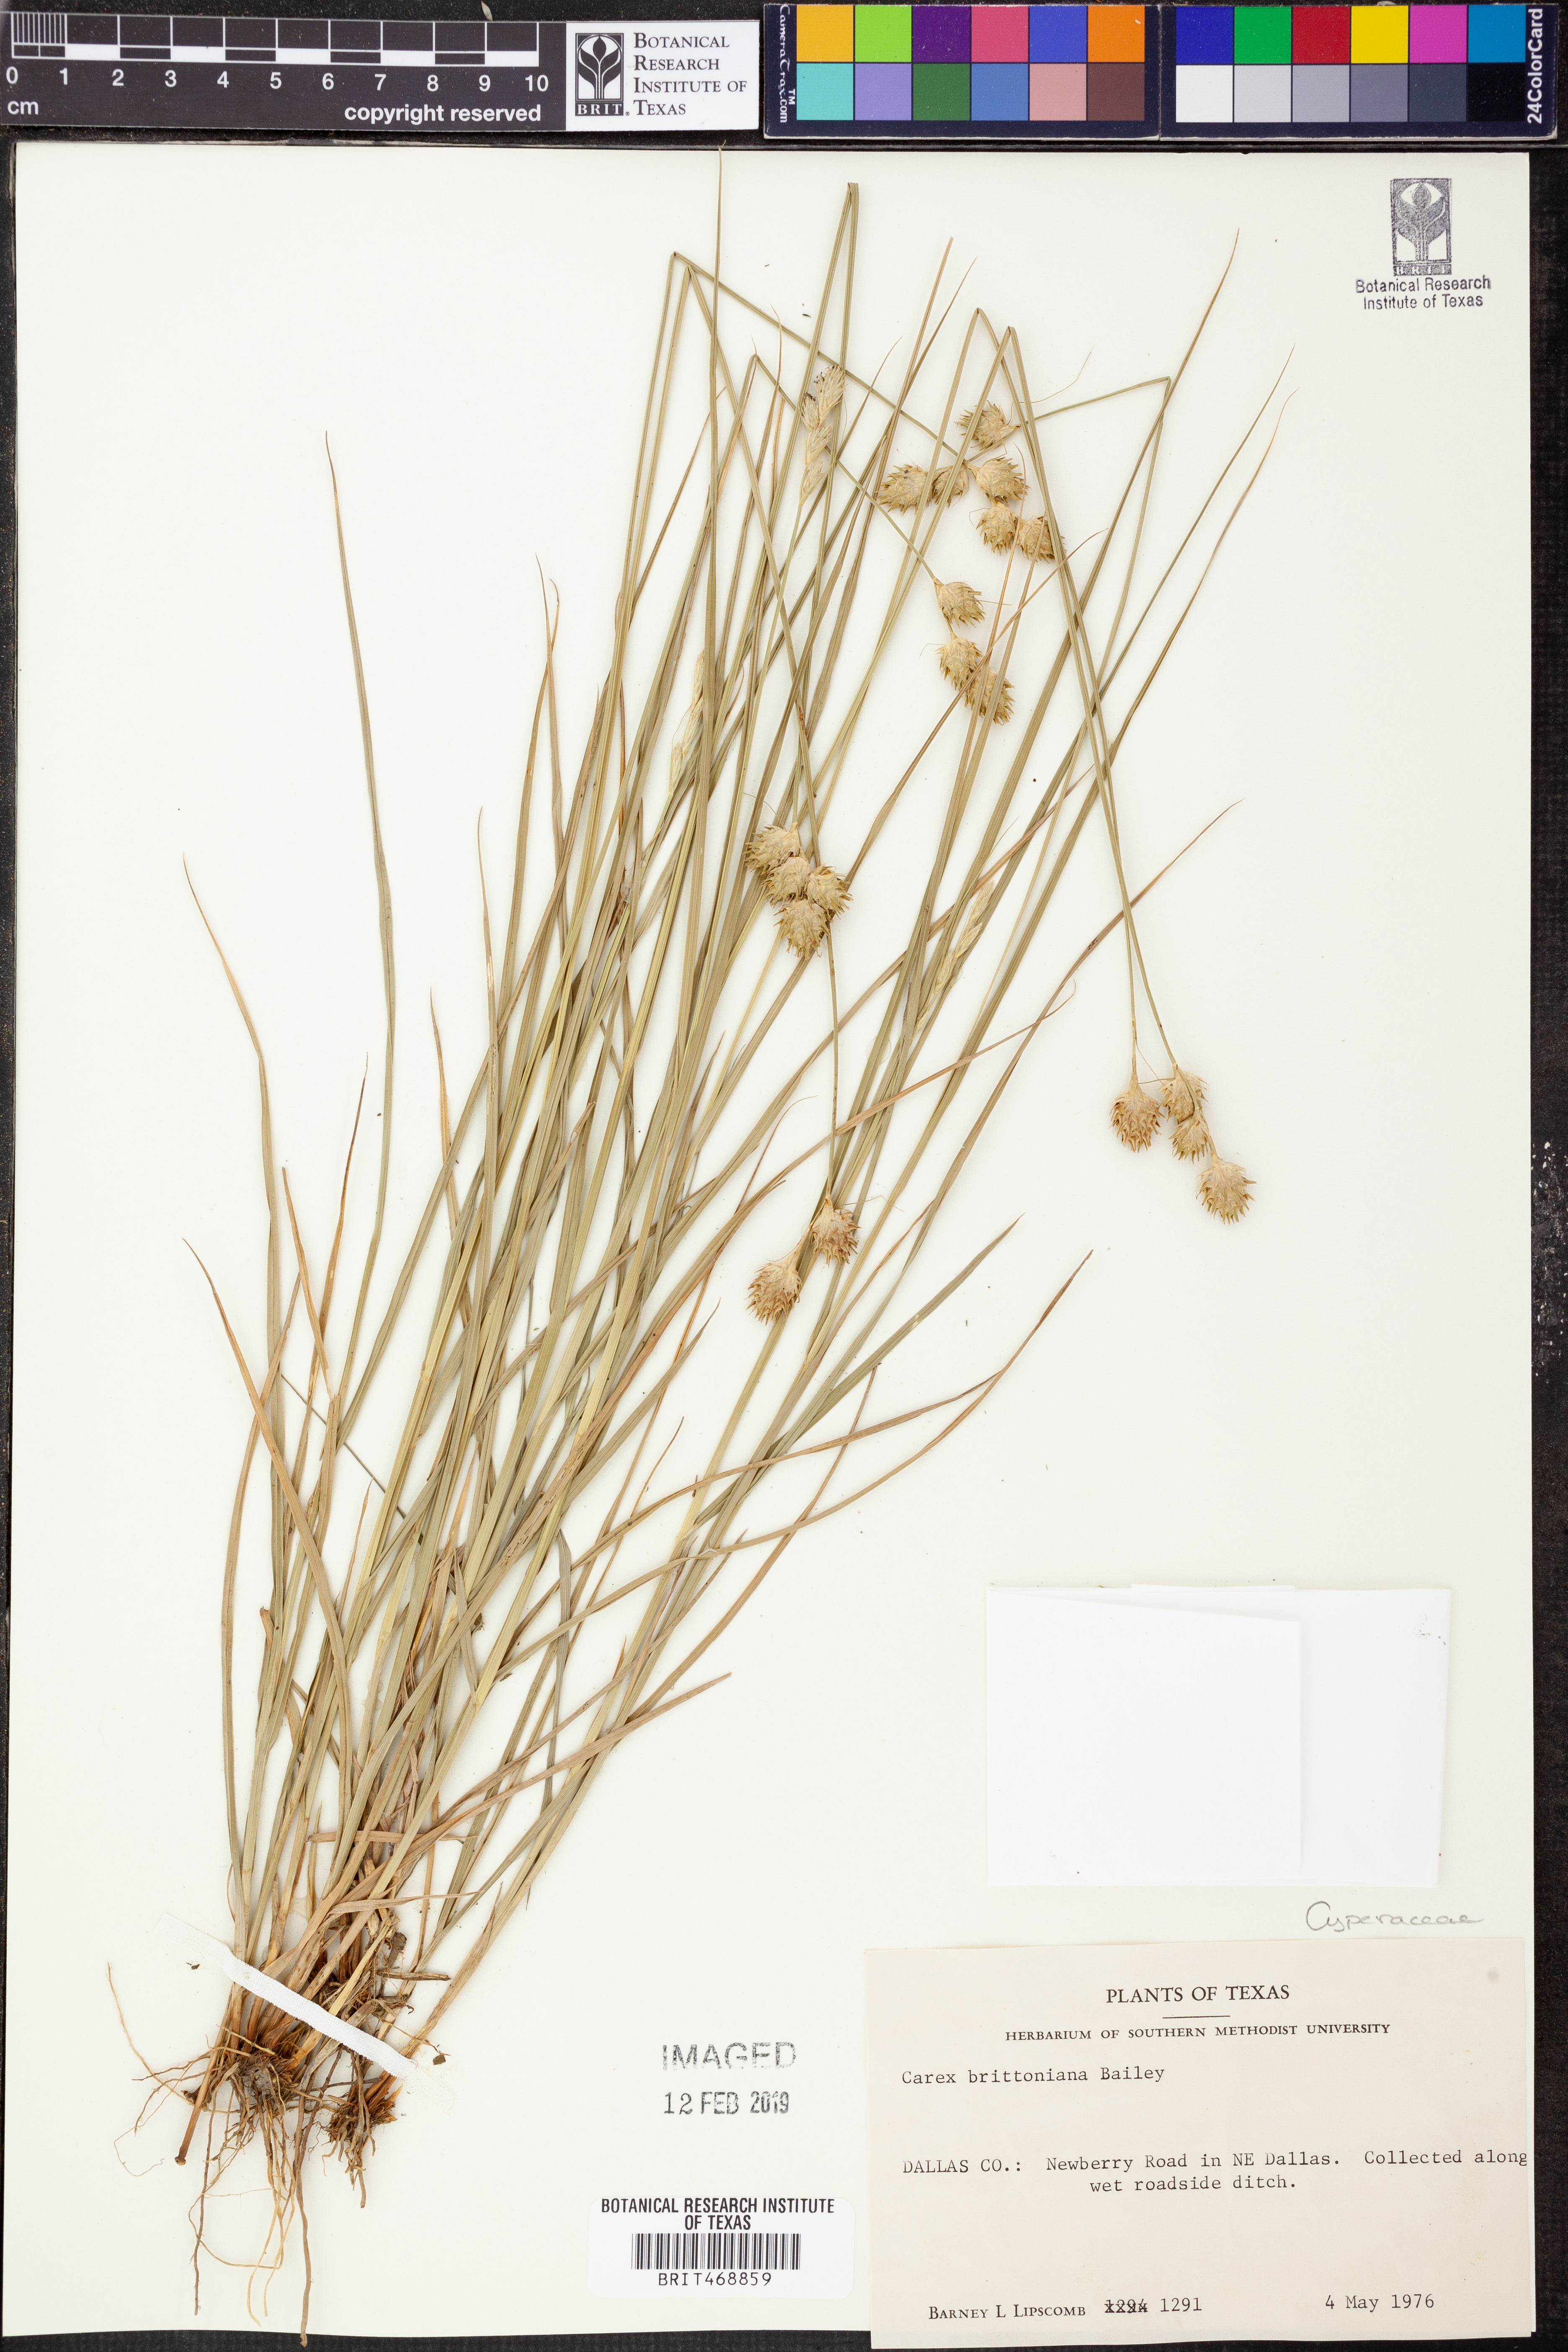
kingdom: Plantae
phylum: Tracheophyta
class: Liliopsida
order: Poales
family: Cyperaceae
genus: Carex
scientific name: Carex tetrastachya
